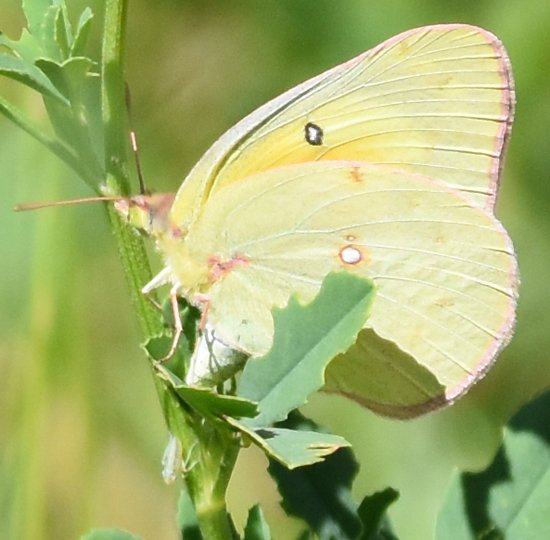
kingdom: Animalia
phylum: Arthropoda
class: Insecta
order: Lepidoptera
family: Pieridae
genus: Colias
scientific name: Colias eurytheme
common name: Orange Sulphur
